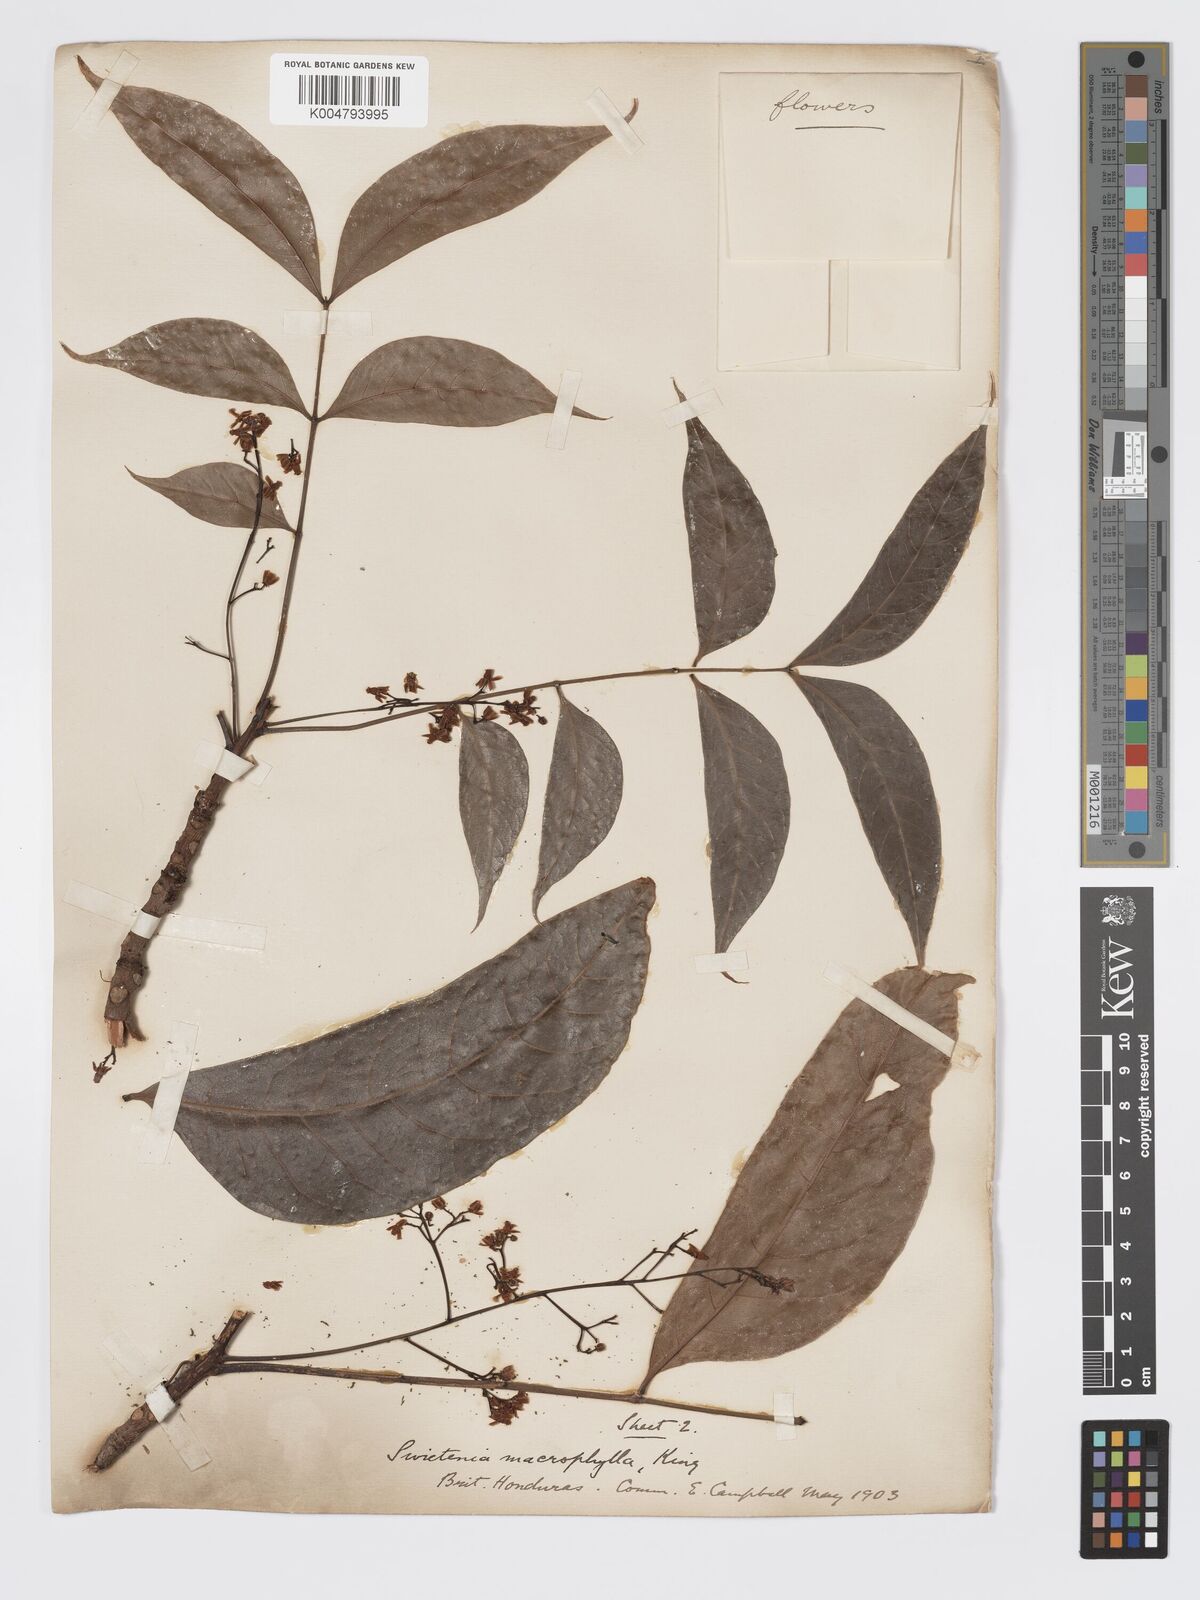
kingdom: Plantae
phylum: Tracheophyta
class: Magnoliopsida
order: Sapindales
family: Meliaceae
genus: Swietenia
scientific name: Swietenia macrophylla
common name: Honduras mahogany
